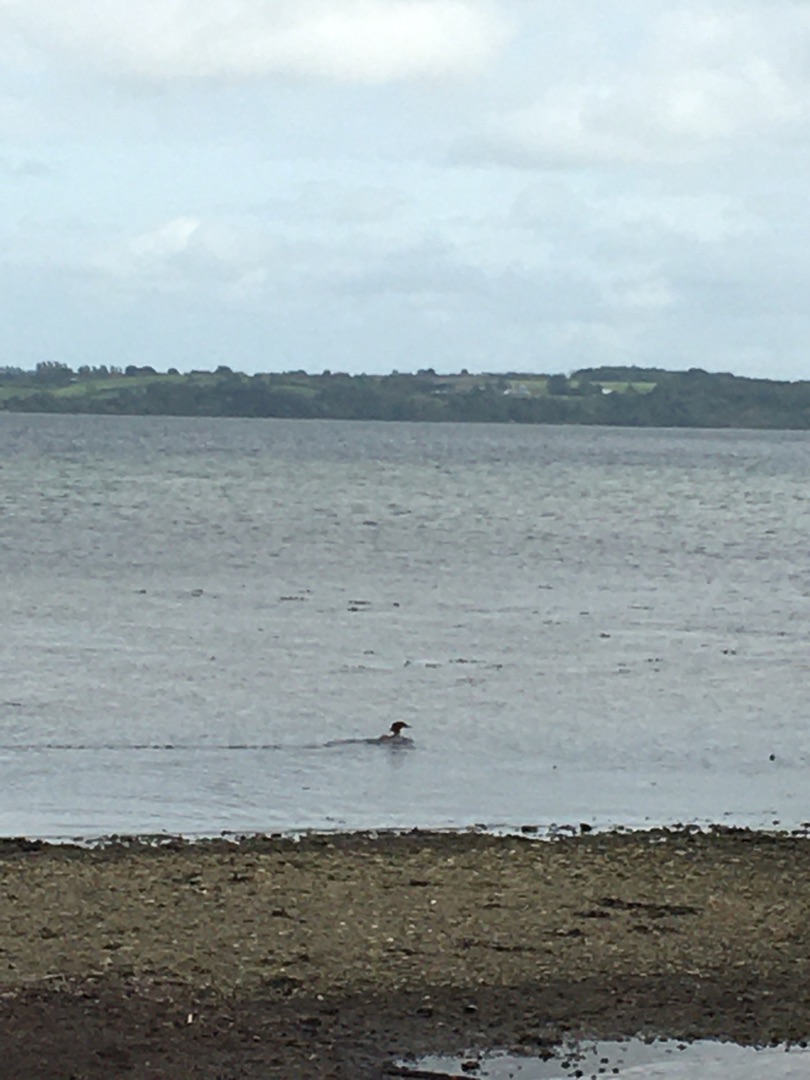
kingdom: Animalia
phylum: Chordata
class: Aves
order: Anseriformes
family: Anatidae
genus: Mergus
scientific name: Mergus merganser
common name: Stor skallesluger
